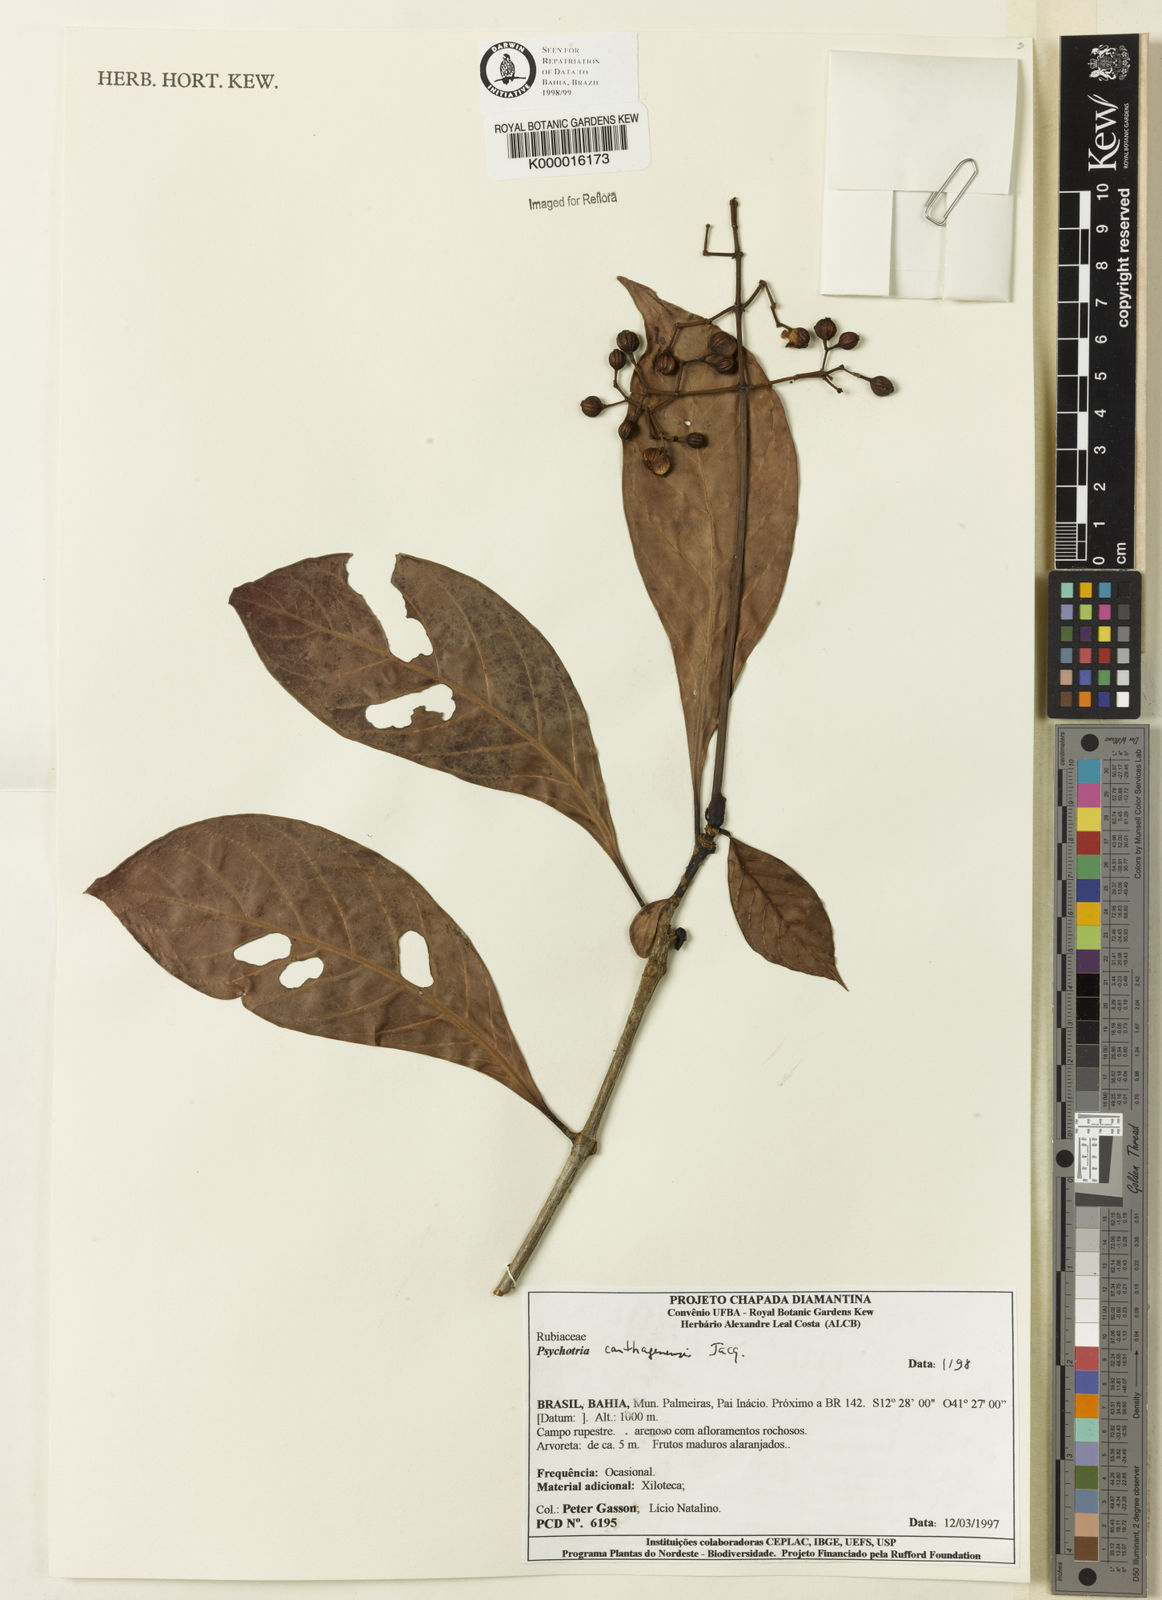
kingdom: Plantae
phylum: Tracheophyta
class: Magnoliopsida
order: Gentianales
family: Rubiaceae
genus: Psychotria
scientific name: Psychotria carthagenensis
